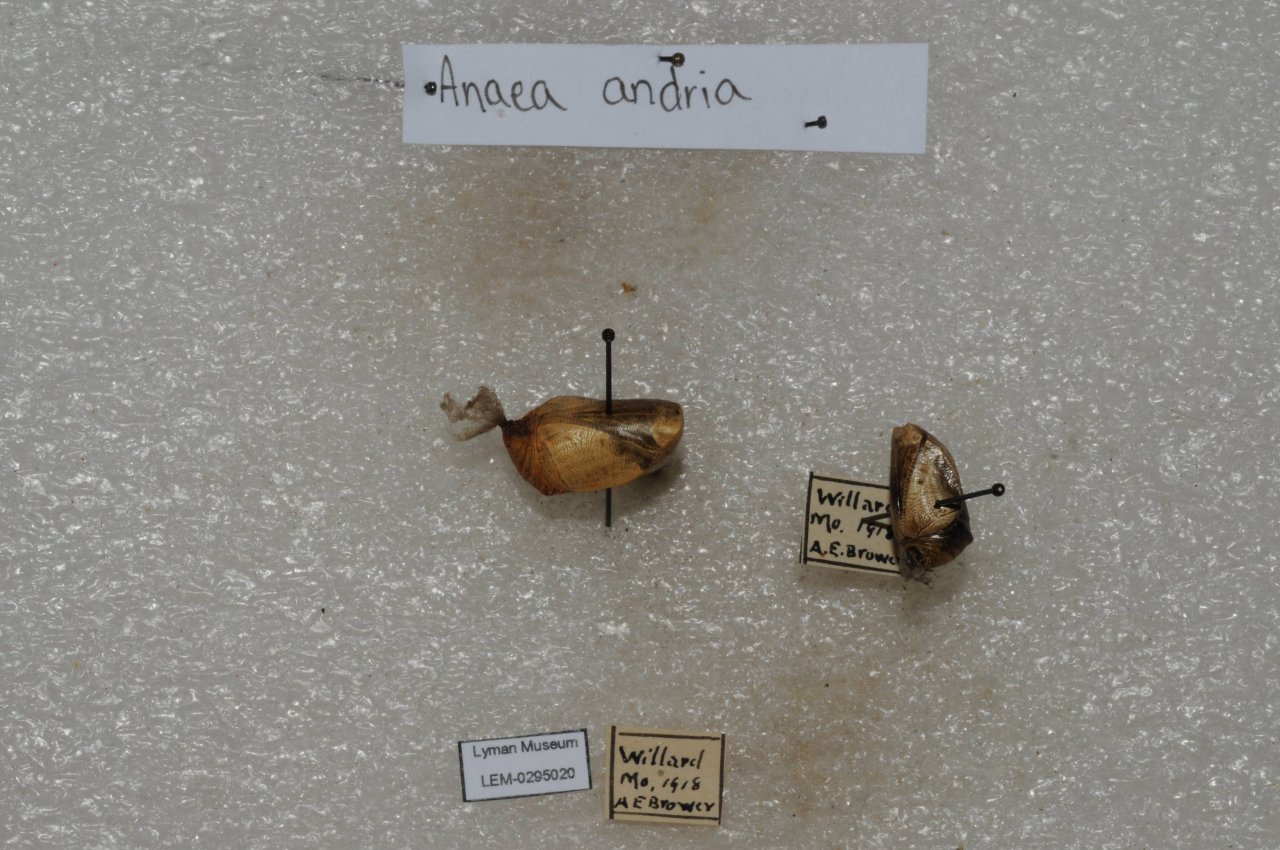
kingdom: Animalia
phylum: Arthropoda
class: Insecta
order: Lepidoptera
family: Nymphalidae
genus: Anaea
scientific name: Anaea andria
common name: Goatweed Leafwing
